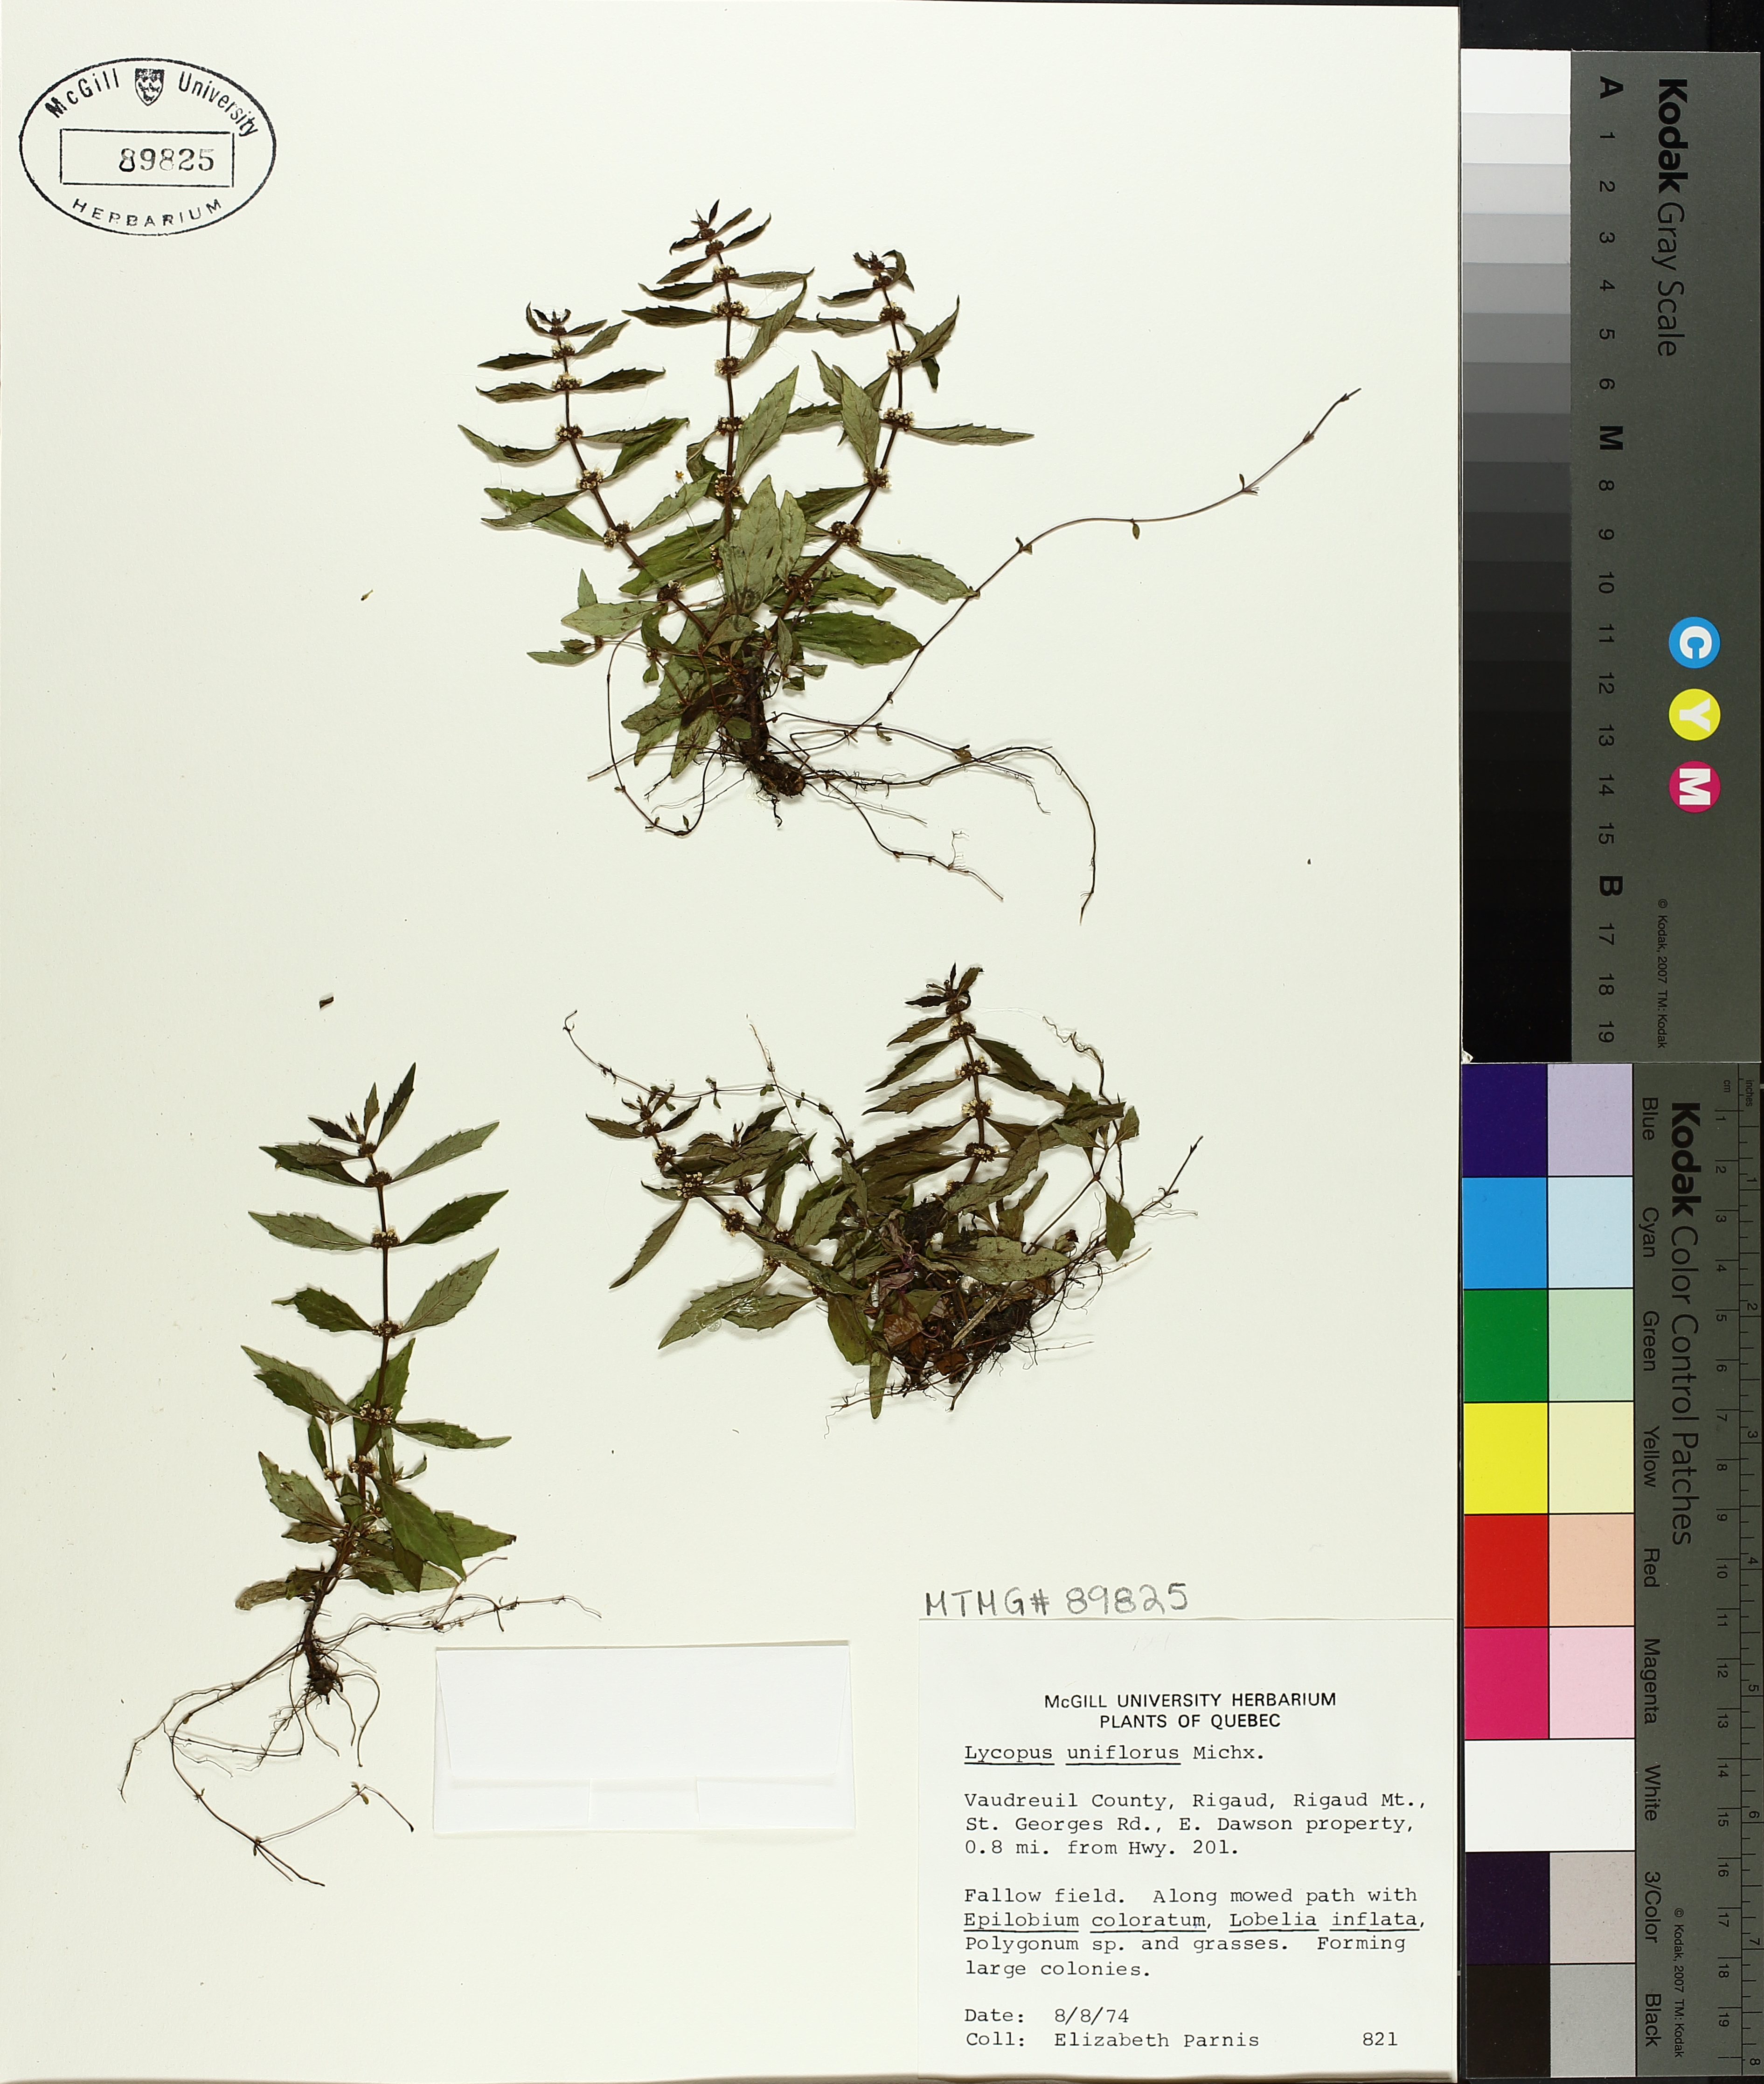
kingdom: Plantae
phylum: Tracheophyta
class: Magnoliopsida
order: Lamiales
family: Lamiaceae
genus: Lycopus
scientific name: Lycopus uniflorus
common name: Northern bugleweed
